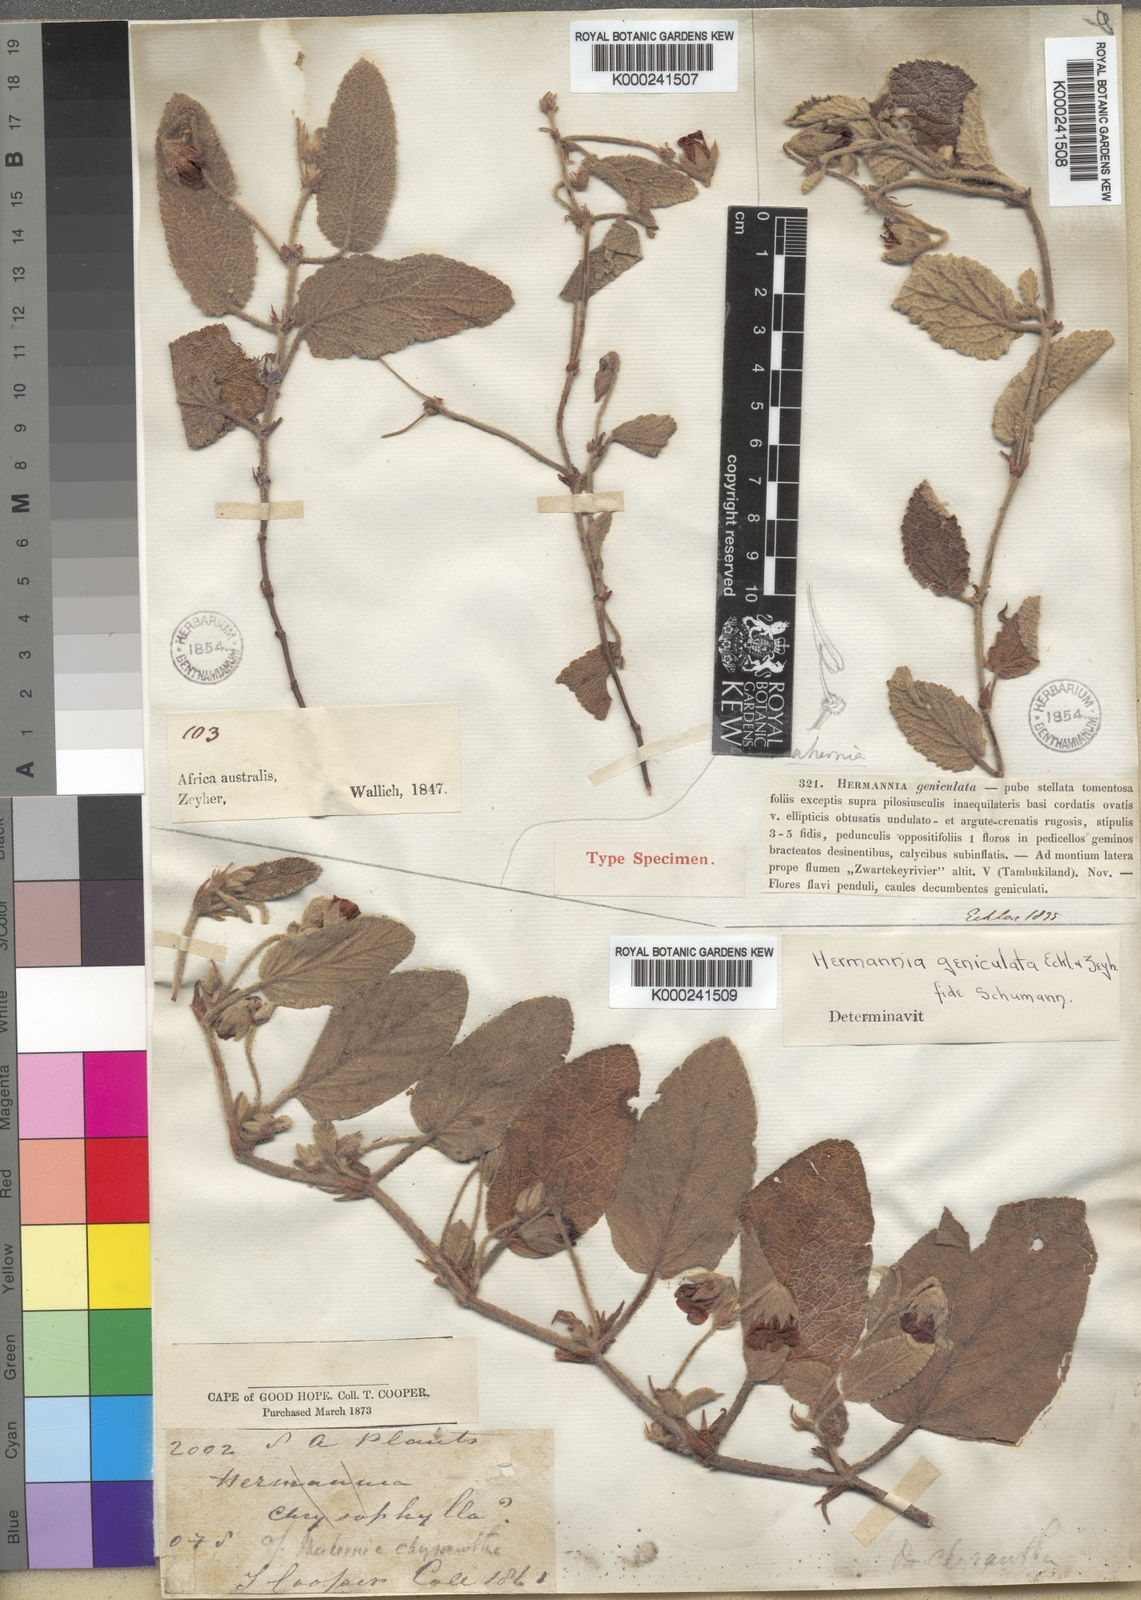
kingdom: Plantae
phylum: Tracheophyta
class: Magnoliopsida
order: Malvales
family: Malvaceae
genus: Hermannia
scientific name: Hermannia geniculata
